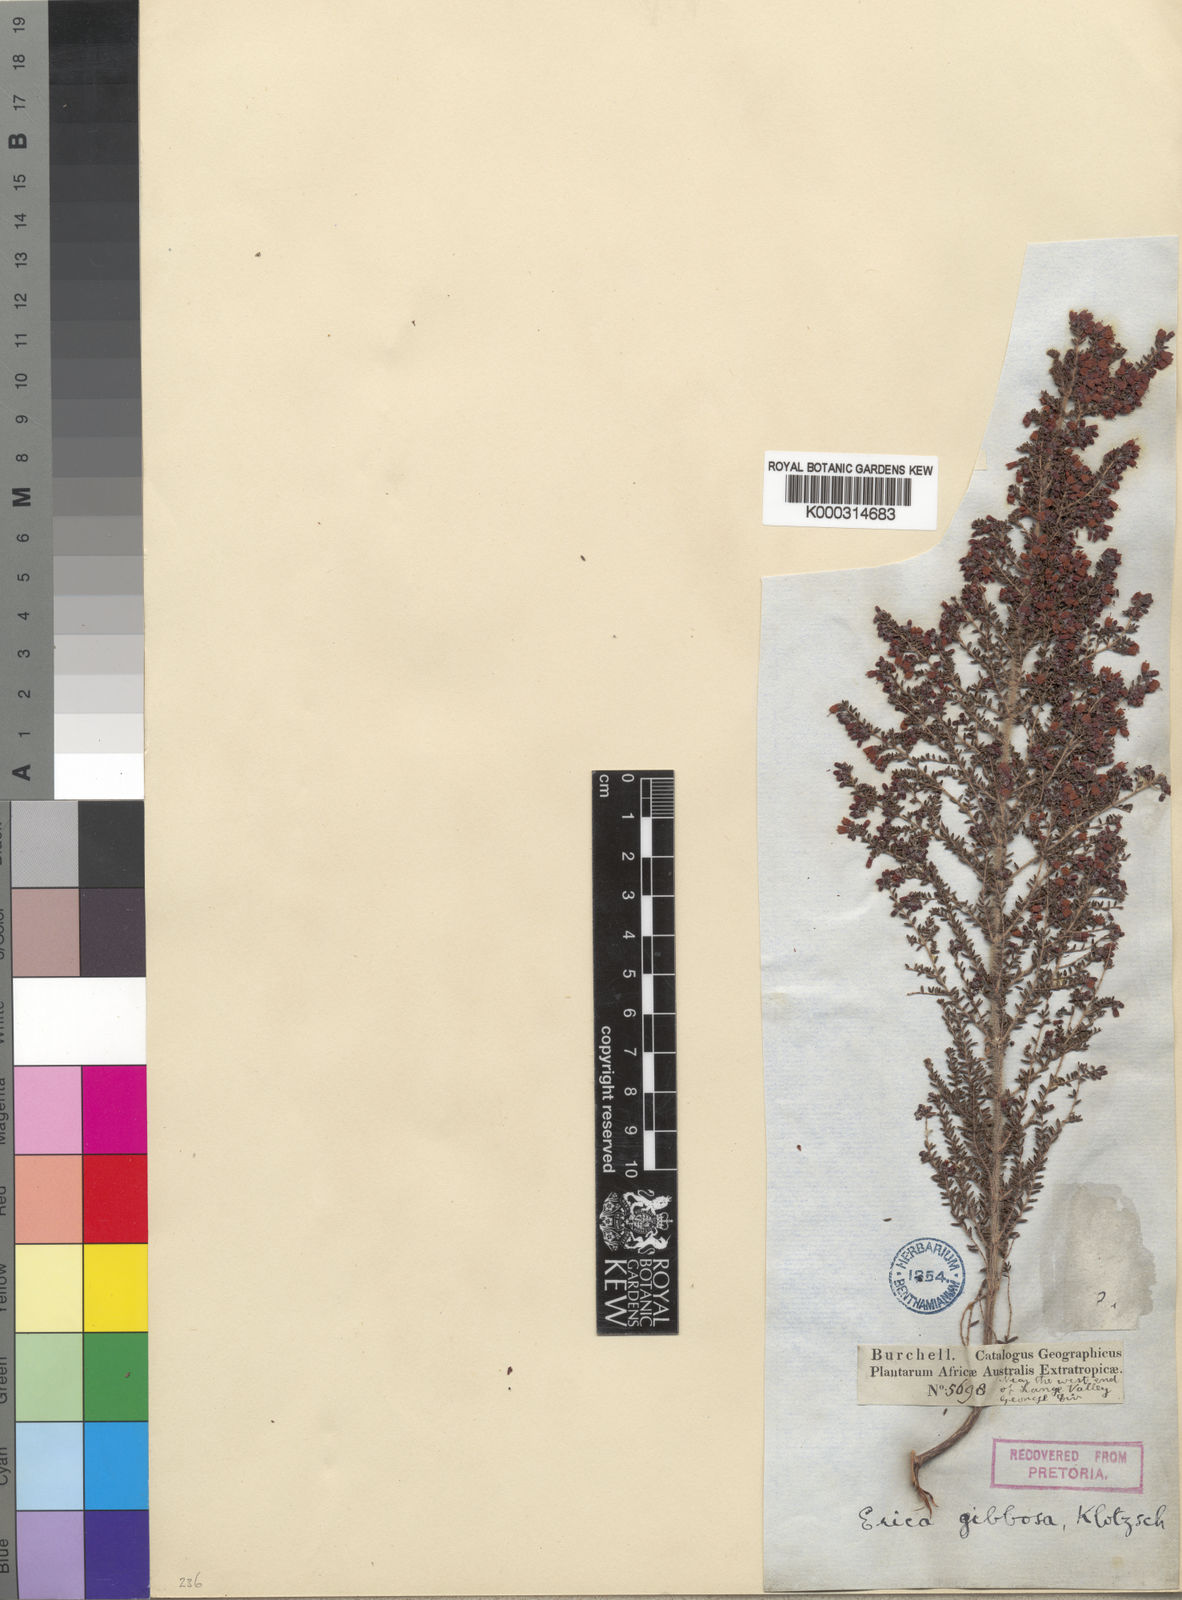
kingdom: Plantae
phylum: Tracheophyta
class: Magnoliopsida
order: Ericales
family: Ericaceae
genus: Erica
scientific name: Erica scabriuscula
